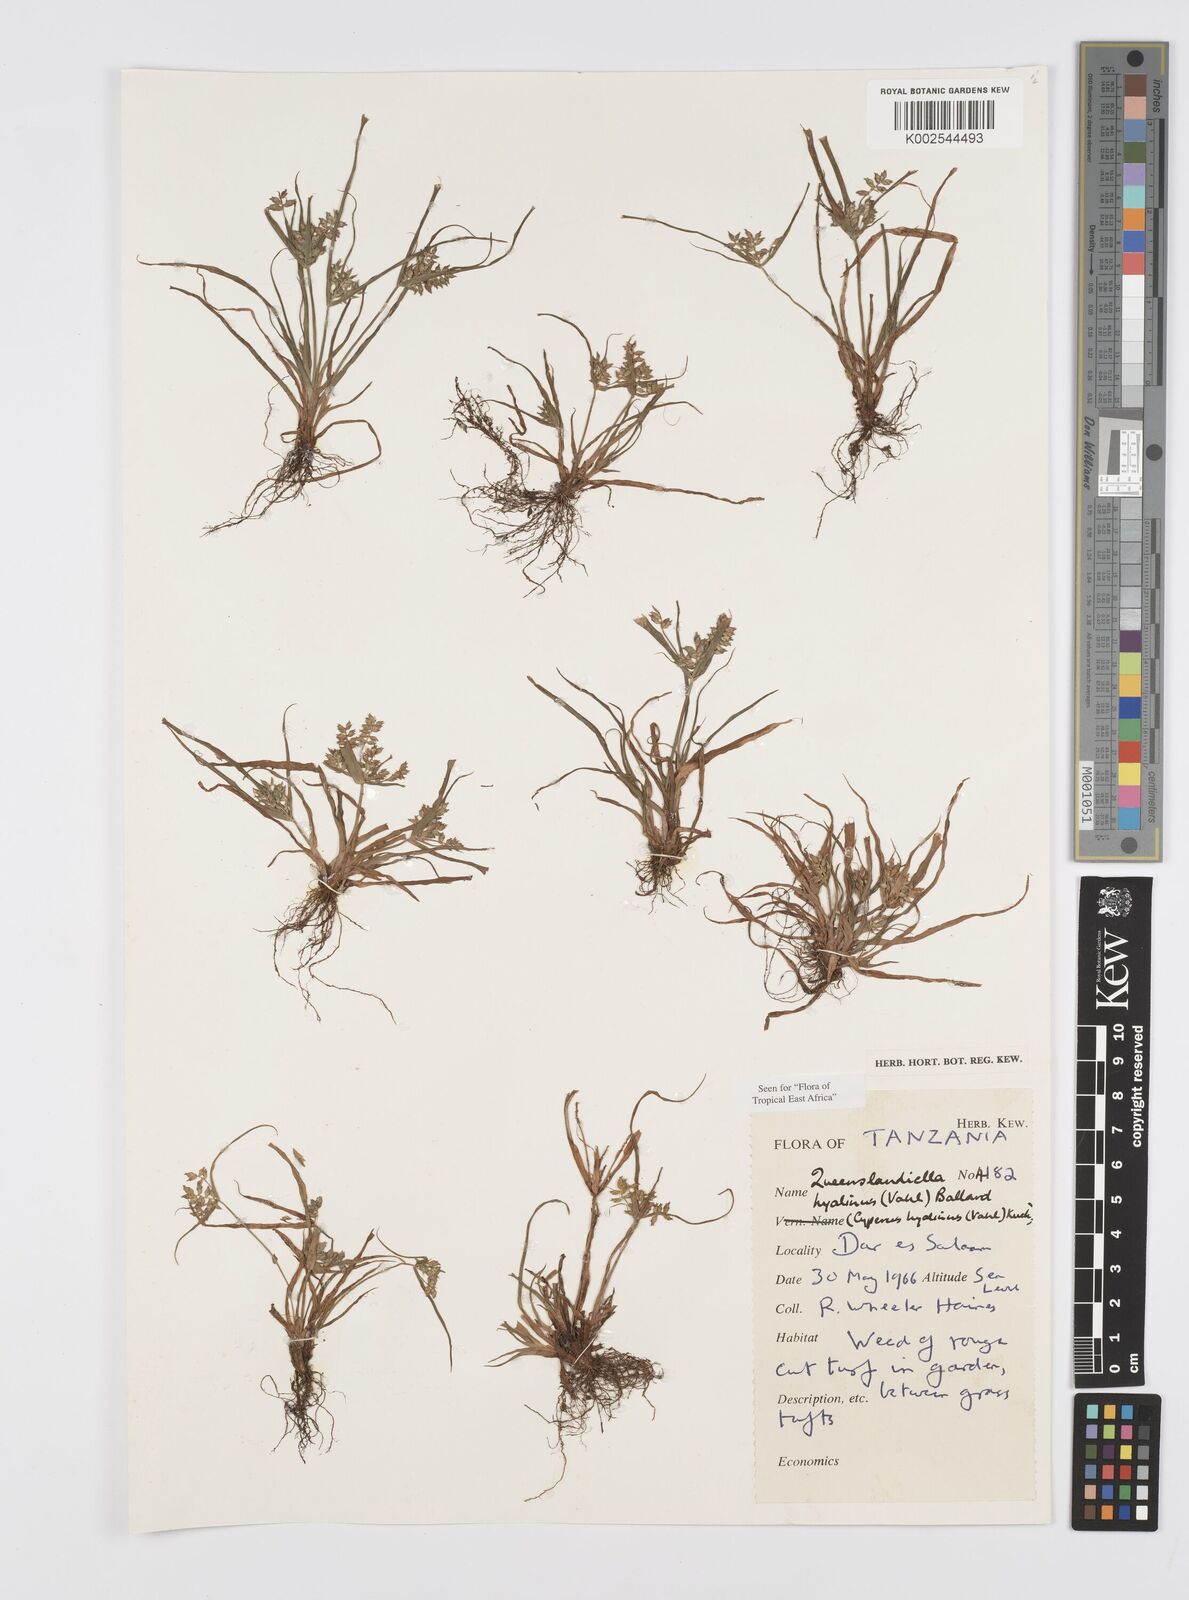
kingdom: Plantae
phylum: Tracheophyta
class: Liliopsida
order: Poales
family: Cyperaceae
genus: Cyperus
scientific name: Cyperus hyalinus
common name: Queensland sedge
